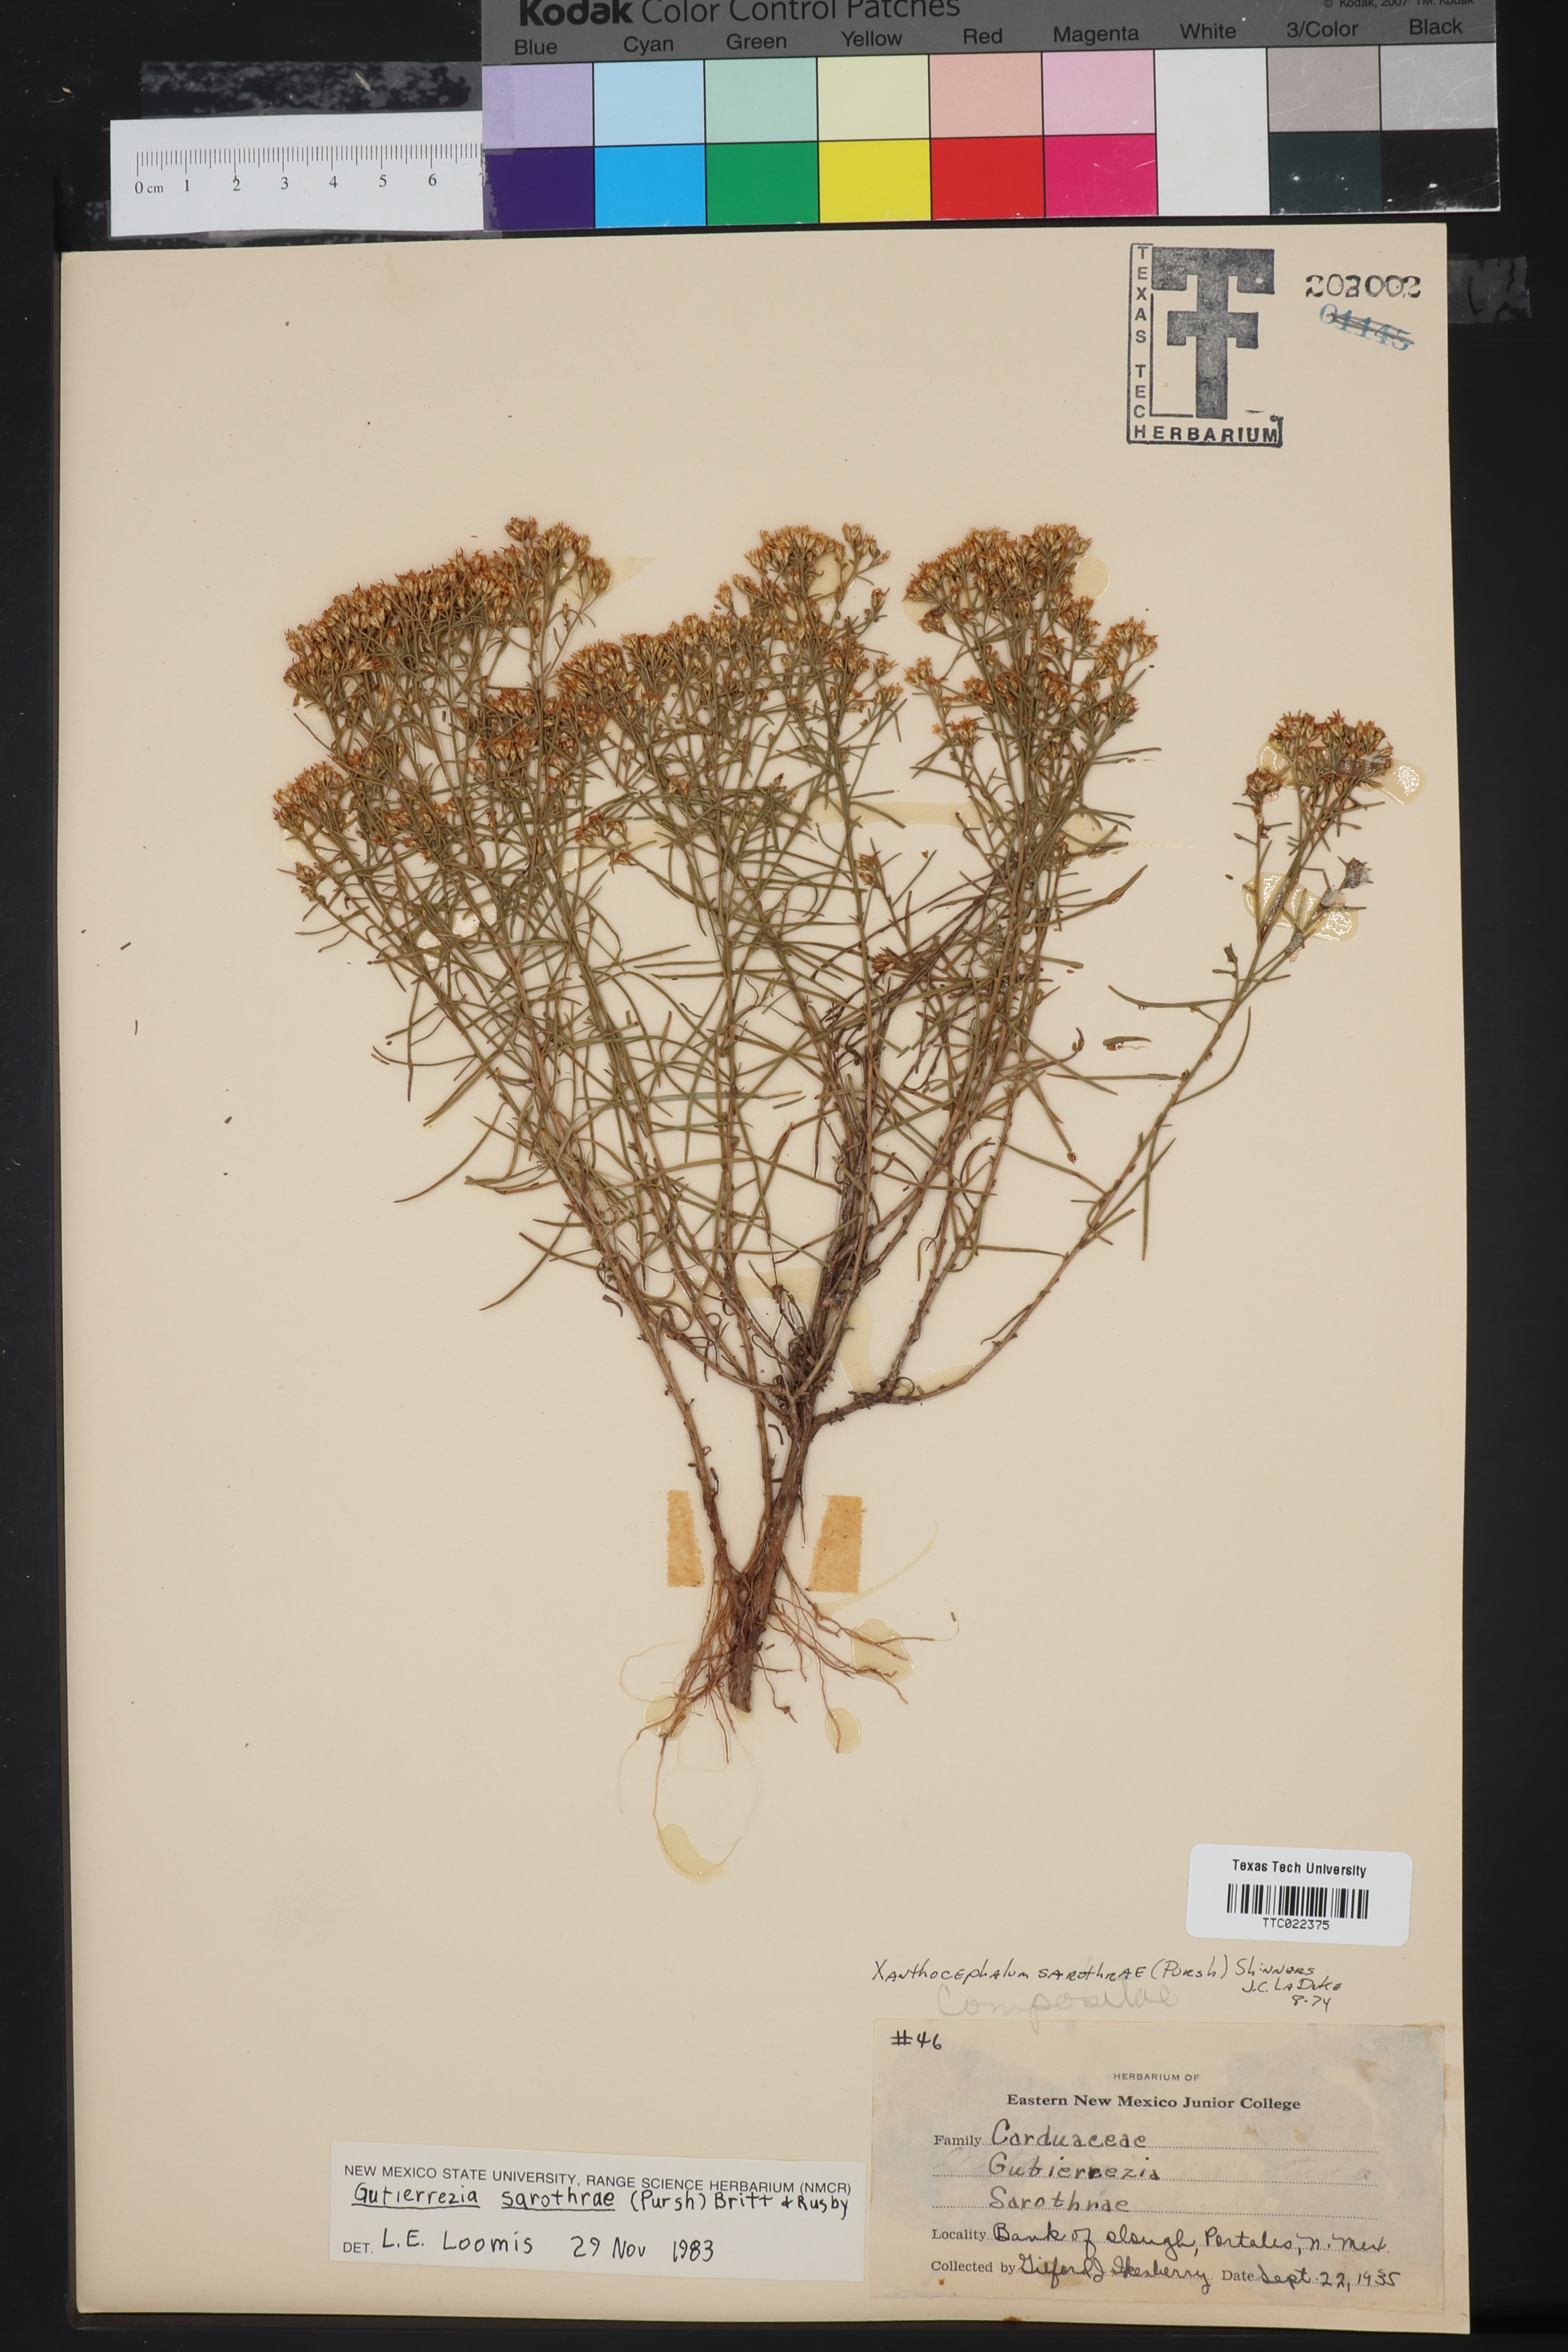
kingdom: Plantae
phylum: Tracheophyta
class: Magnoliopsida
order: Asterales
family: Asteraceae
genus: Erigeron
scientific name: Erigeron canadensis
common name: Canadian fleabane
